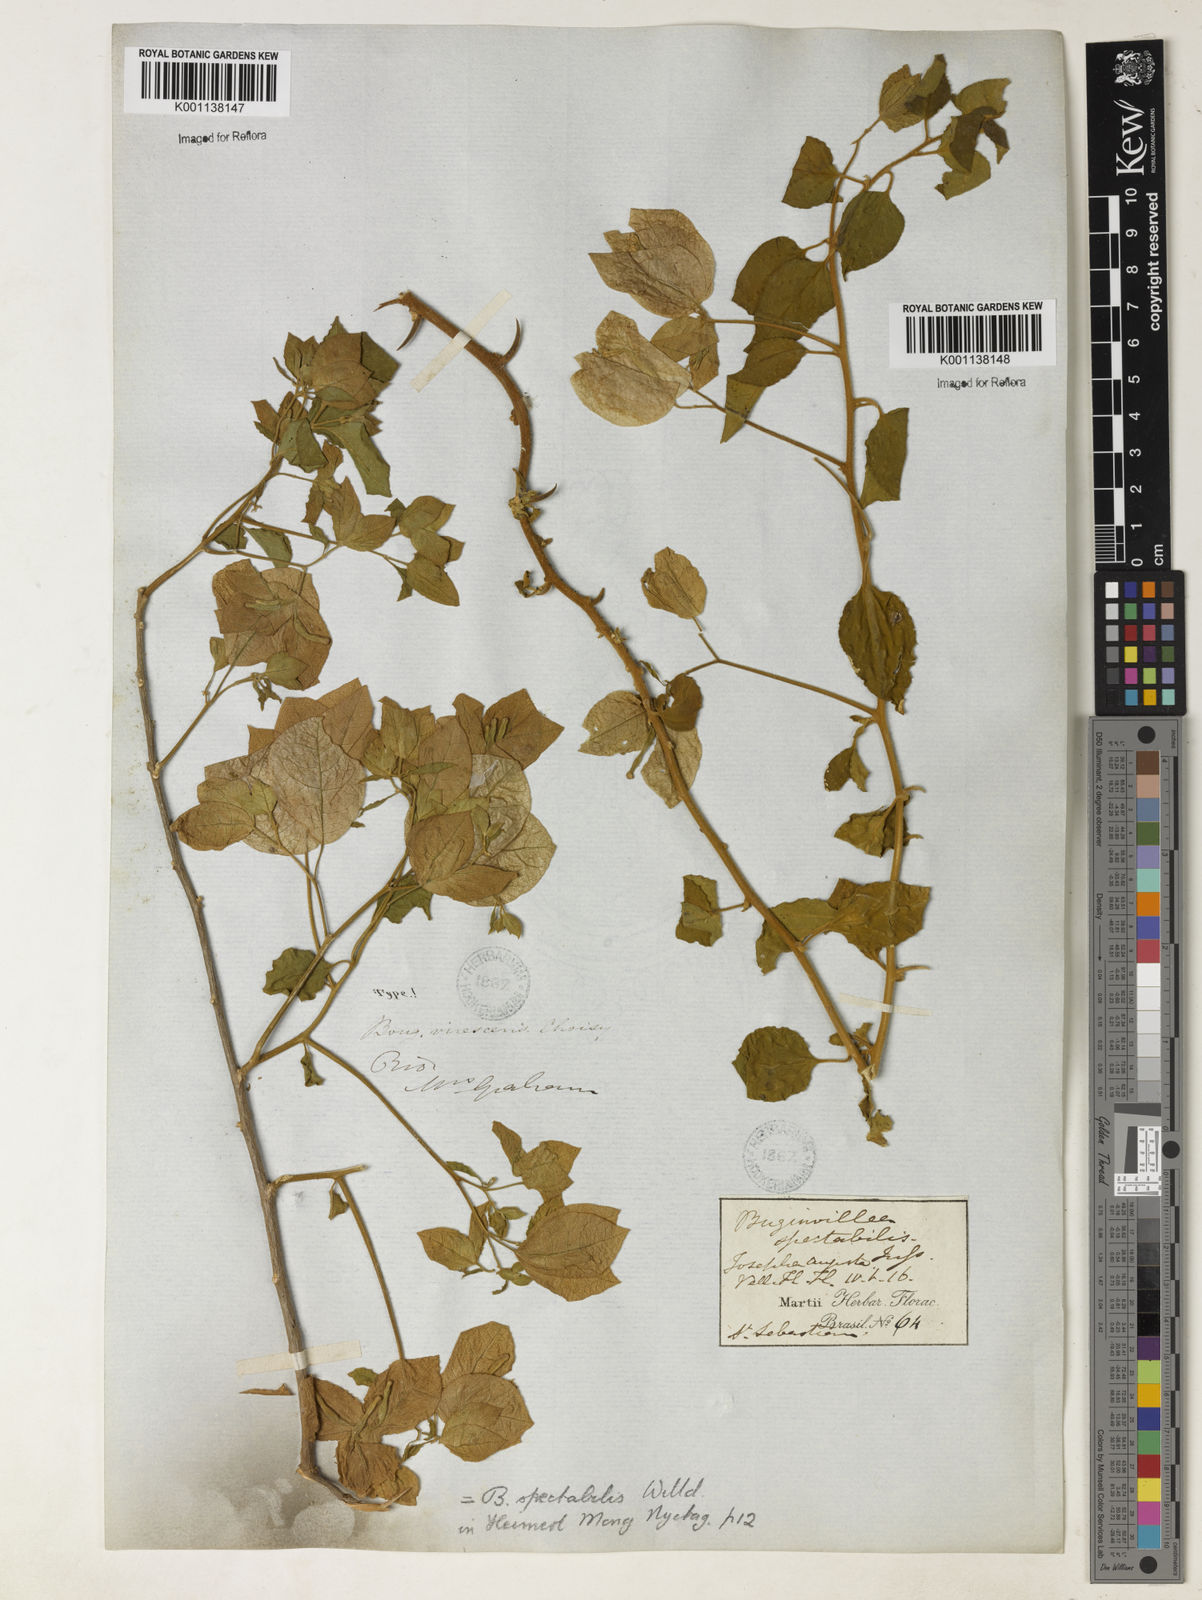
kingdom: Plantae
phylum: Tracheophyta
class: Magnoliopsida
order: Caryophyllales
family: Nyctaginaceae
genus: Bougainvillea
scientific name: Bougainvillea spectabilis
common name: Great bougainvillea
